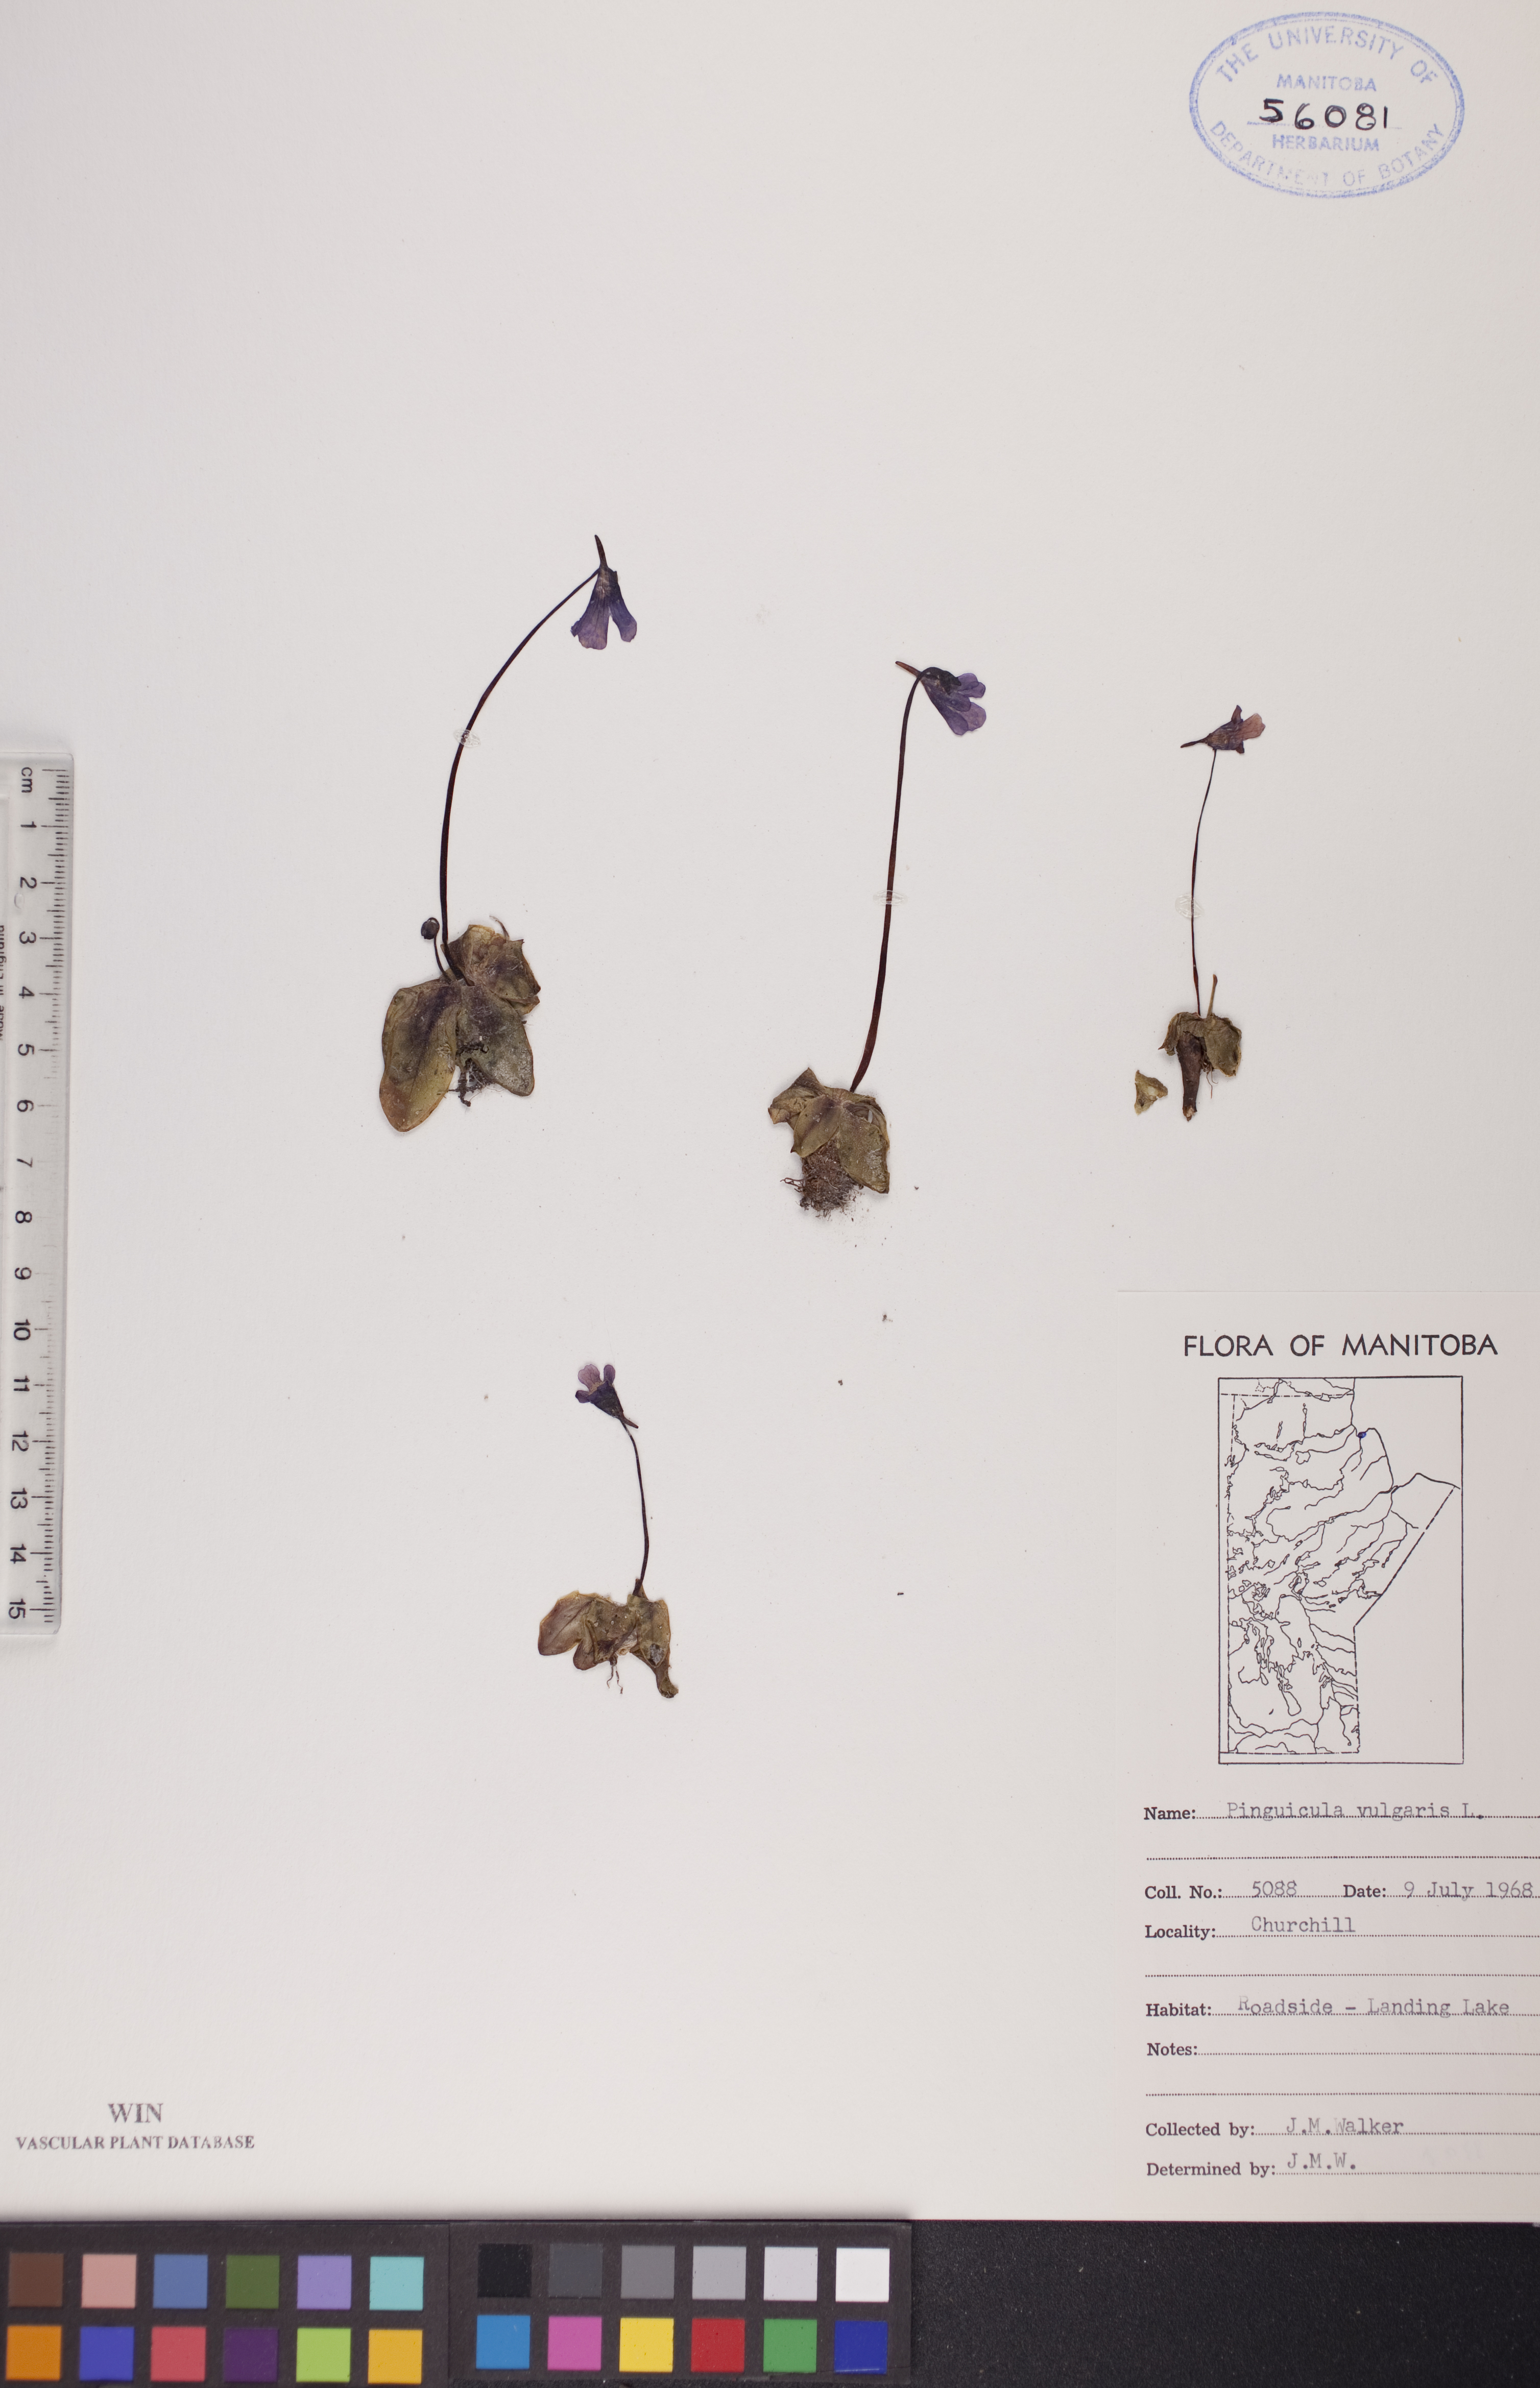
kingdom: Plantae
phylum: Tracheophyta
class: Magnoliopsida
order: Lamiales
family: Lentibulariaceae
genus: Pinguicula
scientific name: Pinguicula vulgaris
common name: Common butterwort
